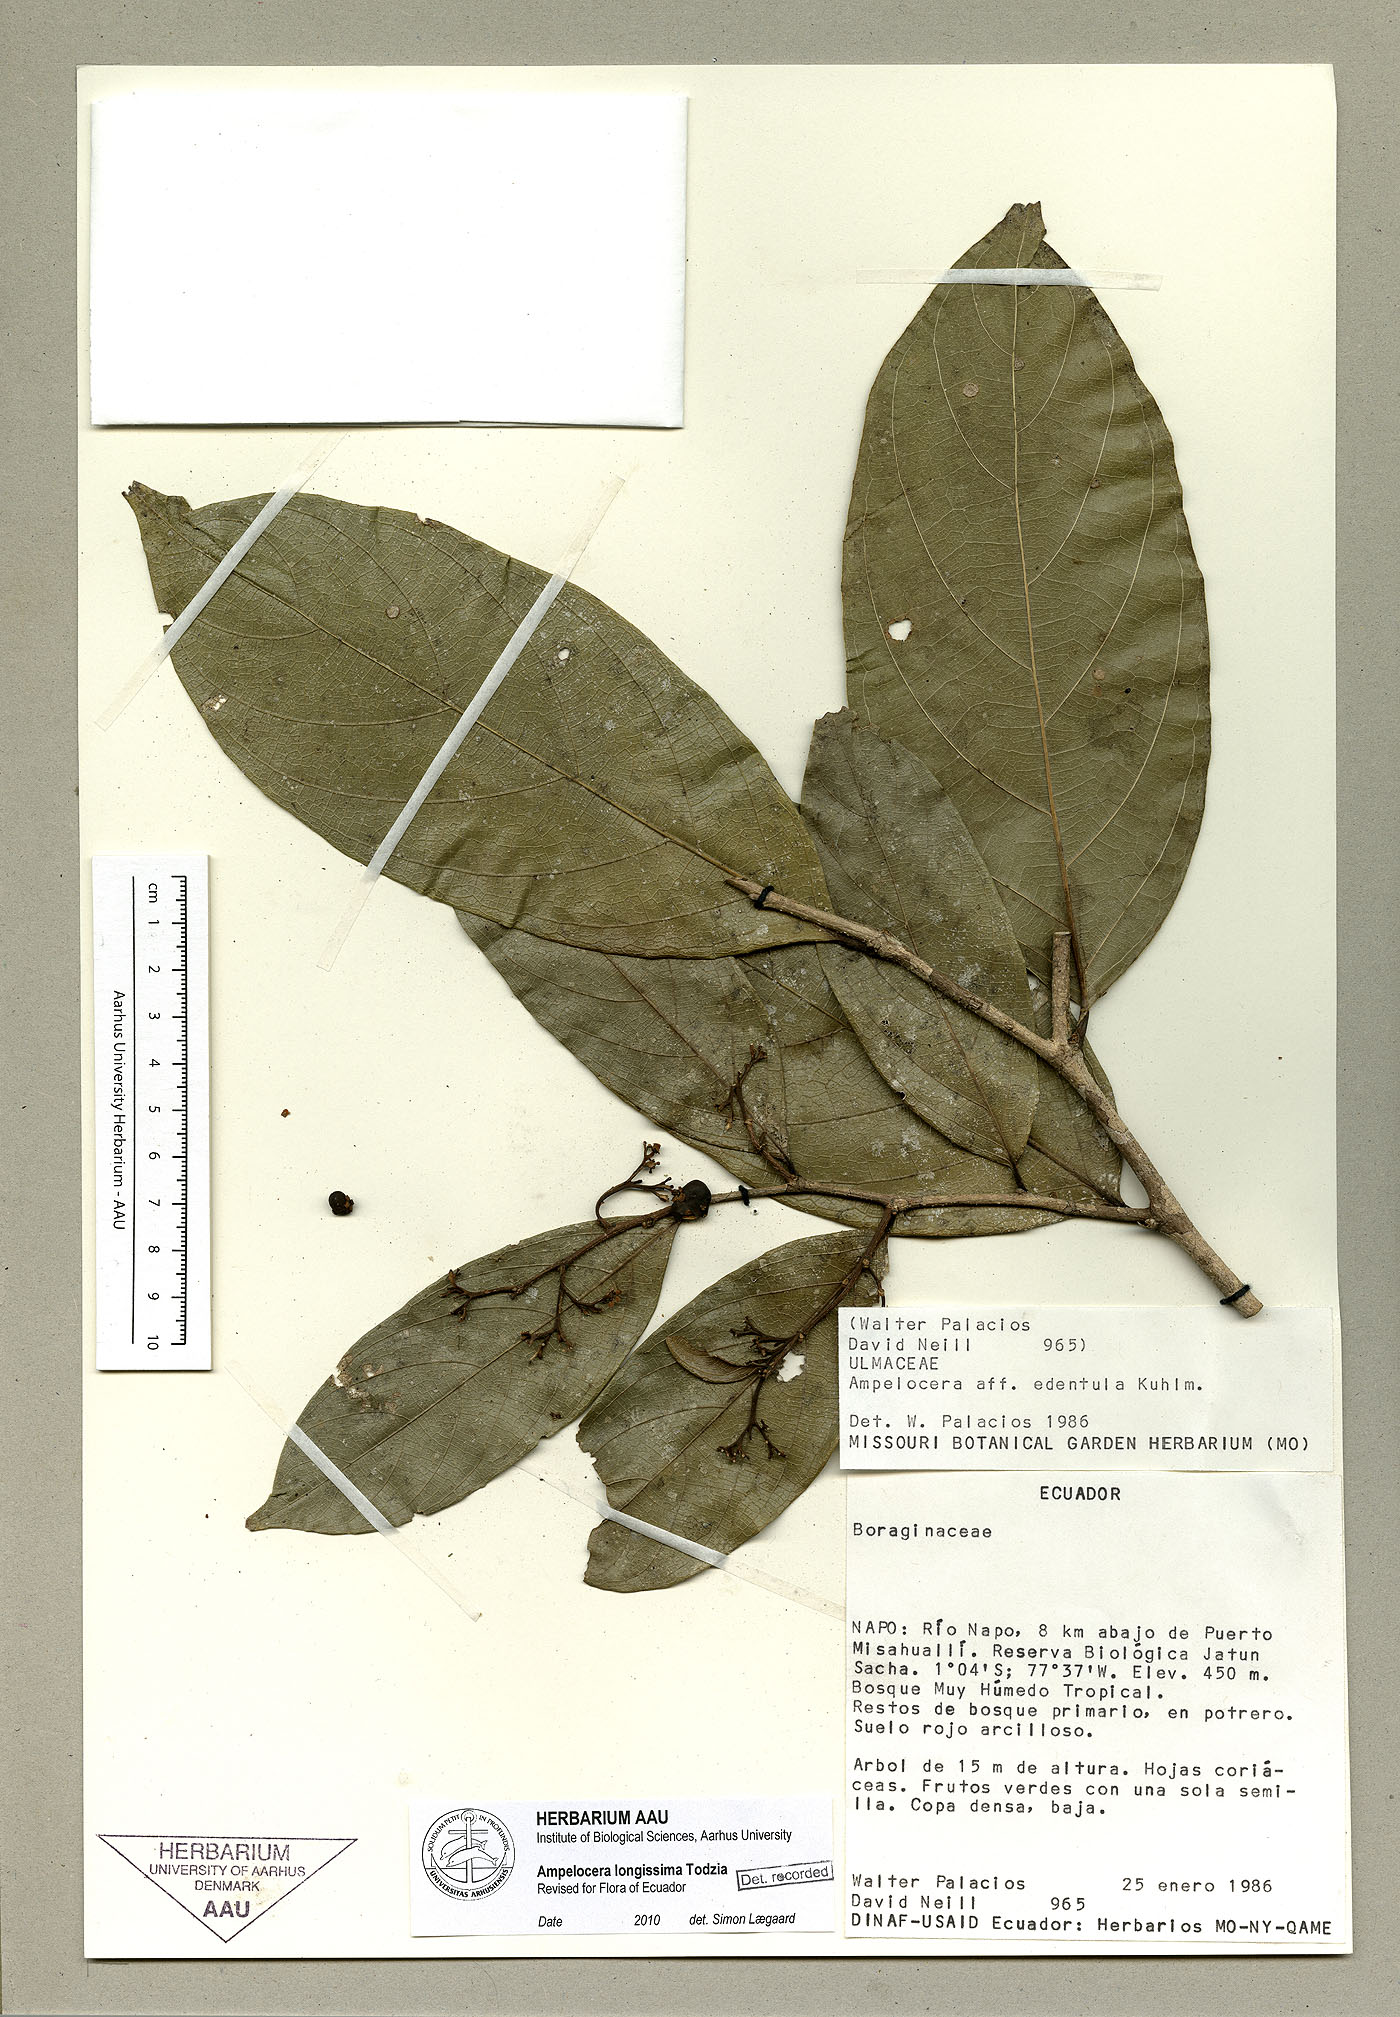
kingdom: Plantae
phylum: Tracheophyta
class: Magnoliopsida
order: Rosales
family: Cannabaceae
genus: Ampelocera
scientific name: Ampelocera longissima
